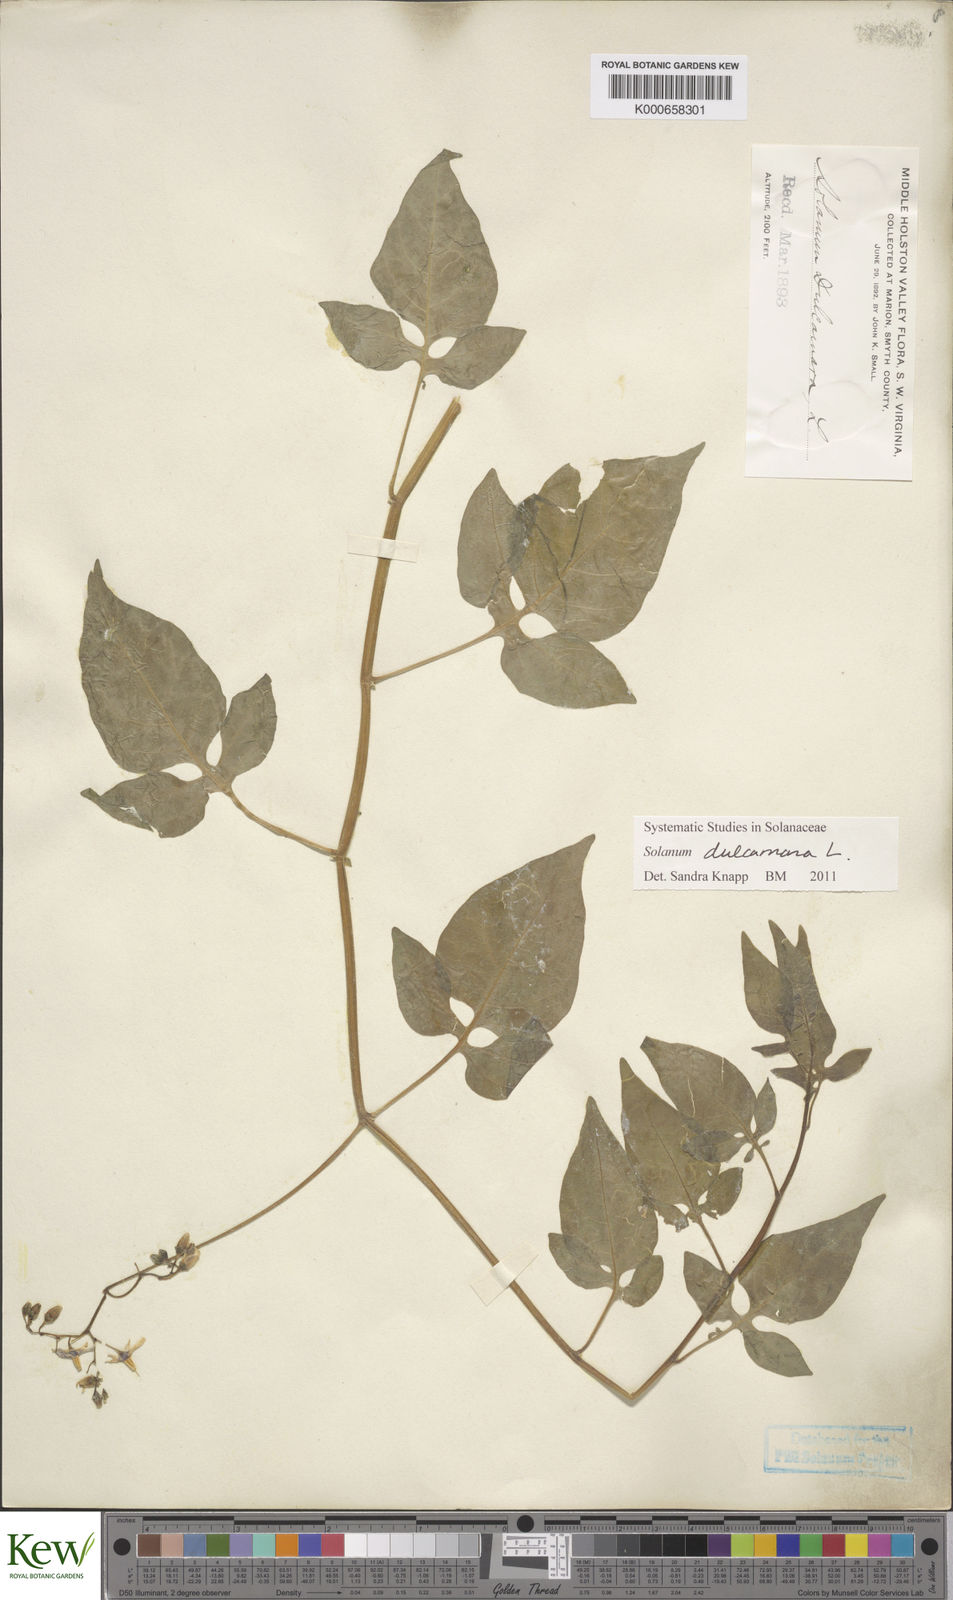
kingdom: Plantae
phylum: Tracheophyta
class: Magnoliopsida
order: Solanales
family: Solanaceae
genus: Solanum
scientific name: Solanum dulcamara
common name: Climbing nightshade
